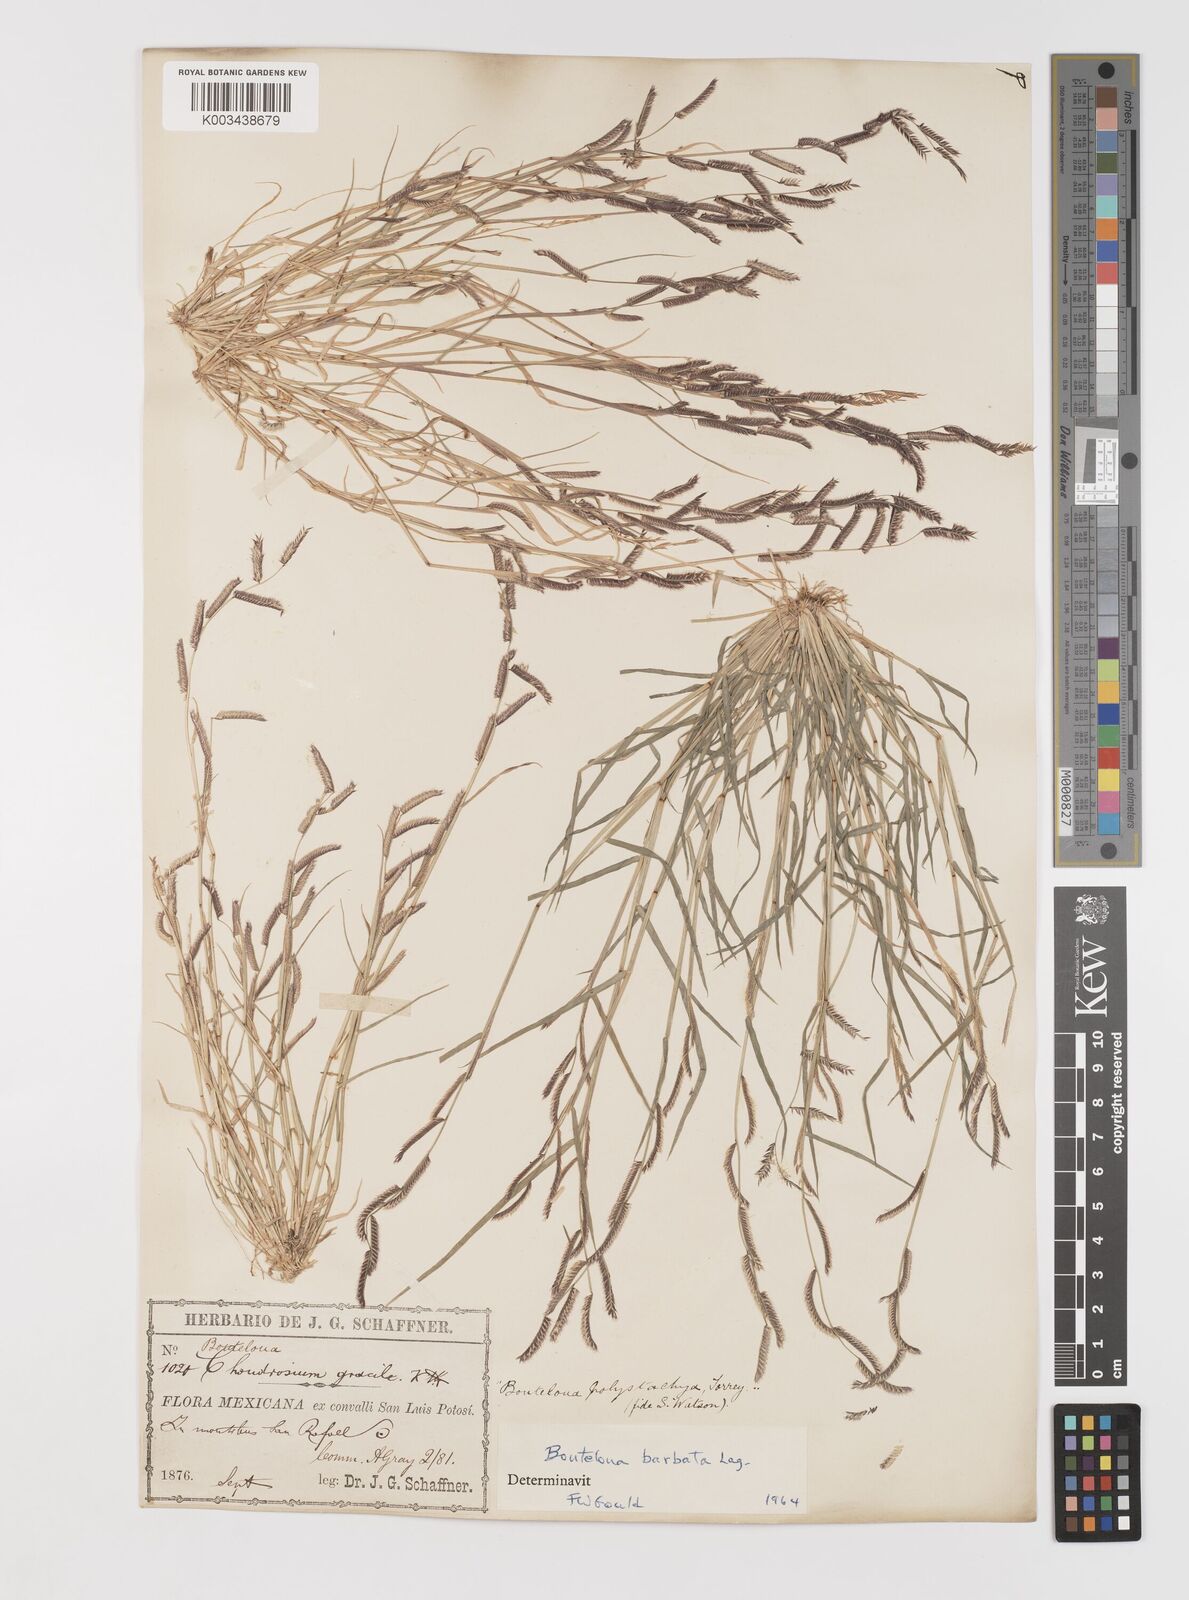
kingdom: Plantae
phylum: Tracheophyta
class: Liliopsida
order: Poales
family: Poaceae
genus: Bouteloua
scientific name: Bouteloua
